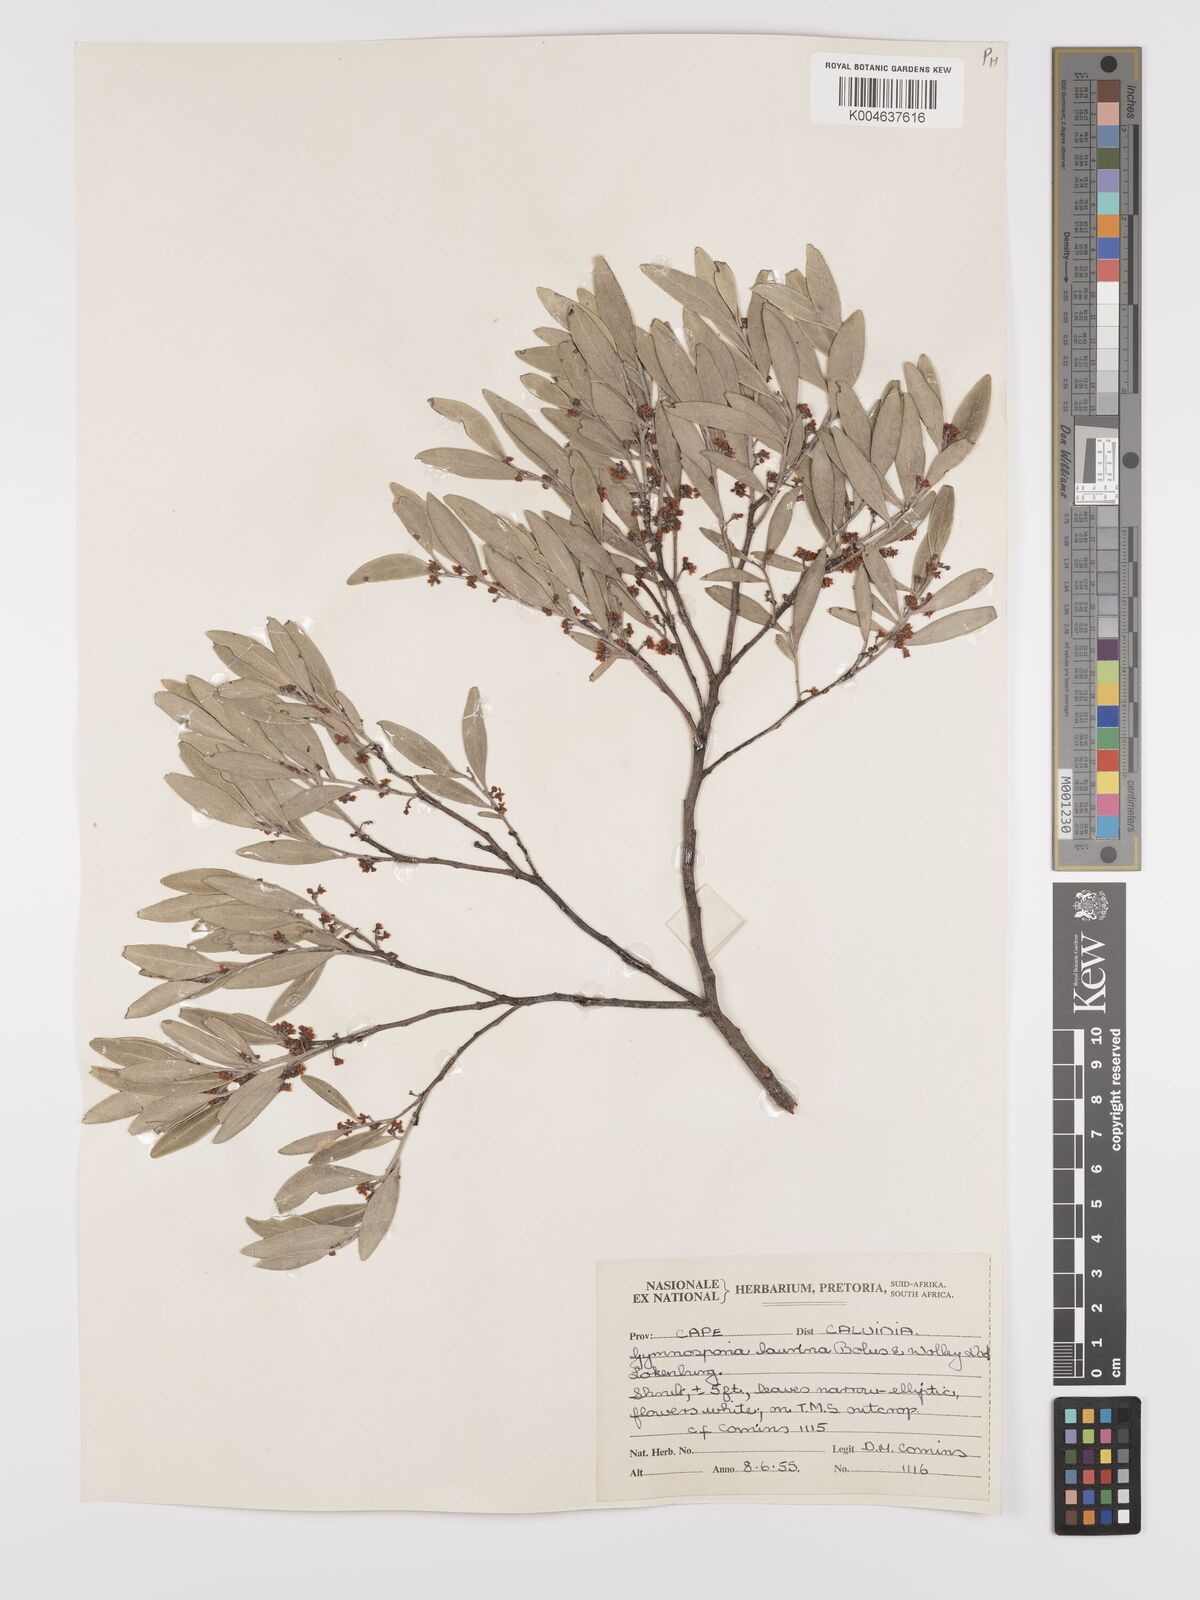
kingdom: Plantae
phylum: Tracheophyta
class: Magnoliopsida
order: Celastrales
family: Celastraceae
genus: Monteverdia
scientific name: Monteverdia laurina
